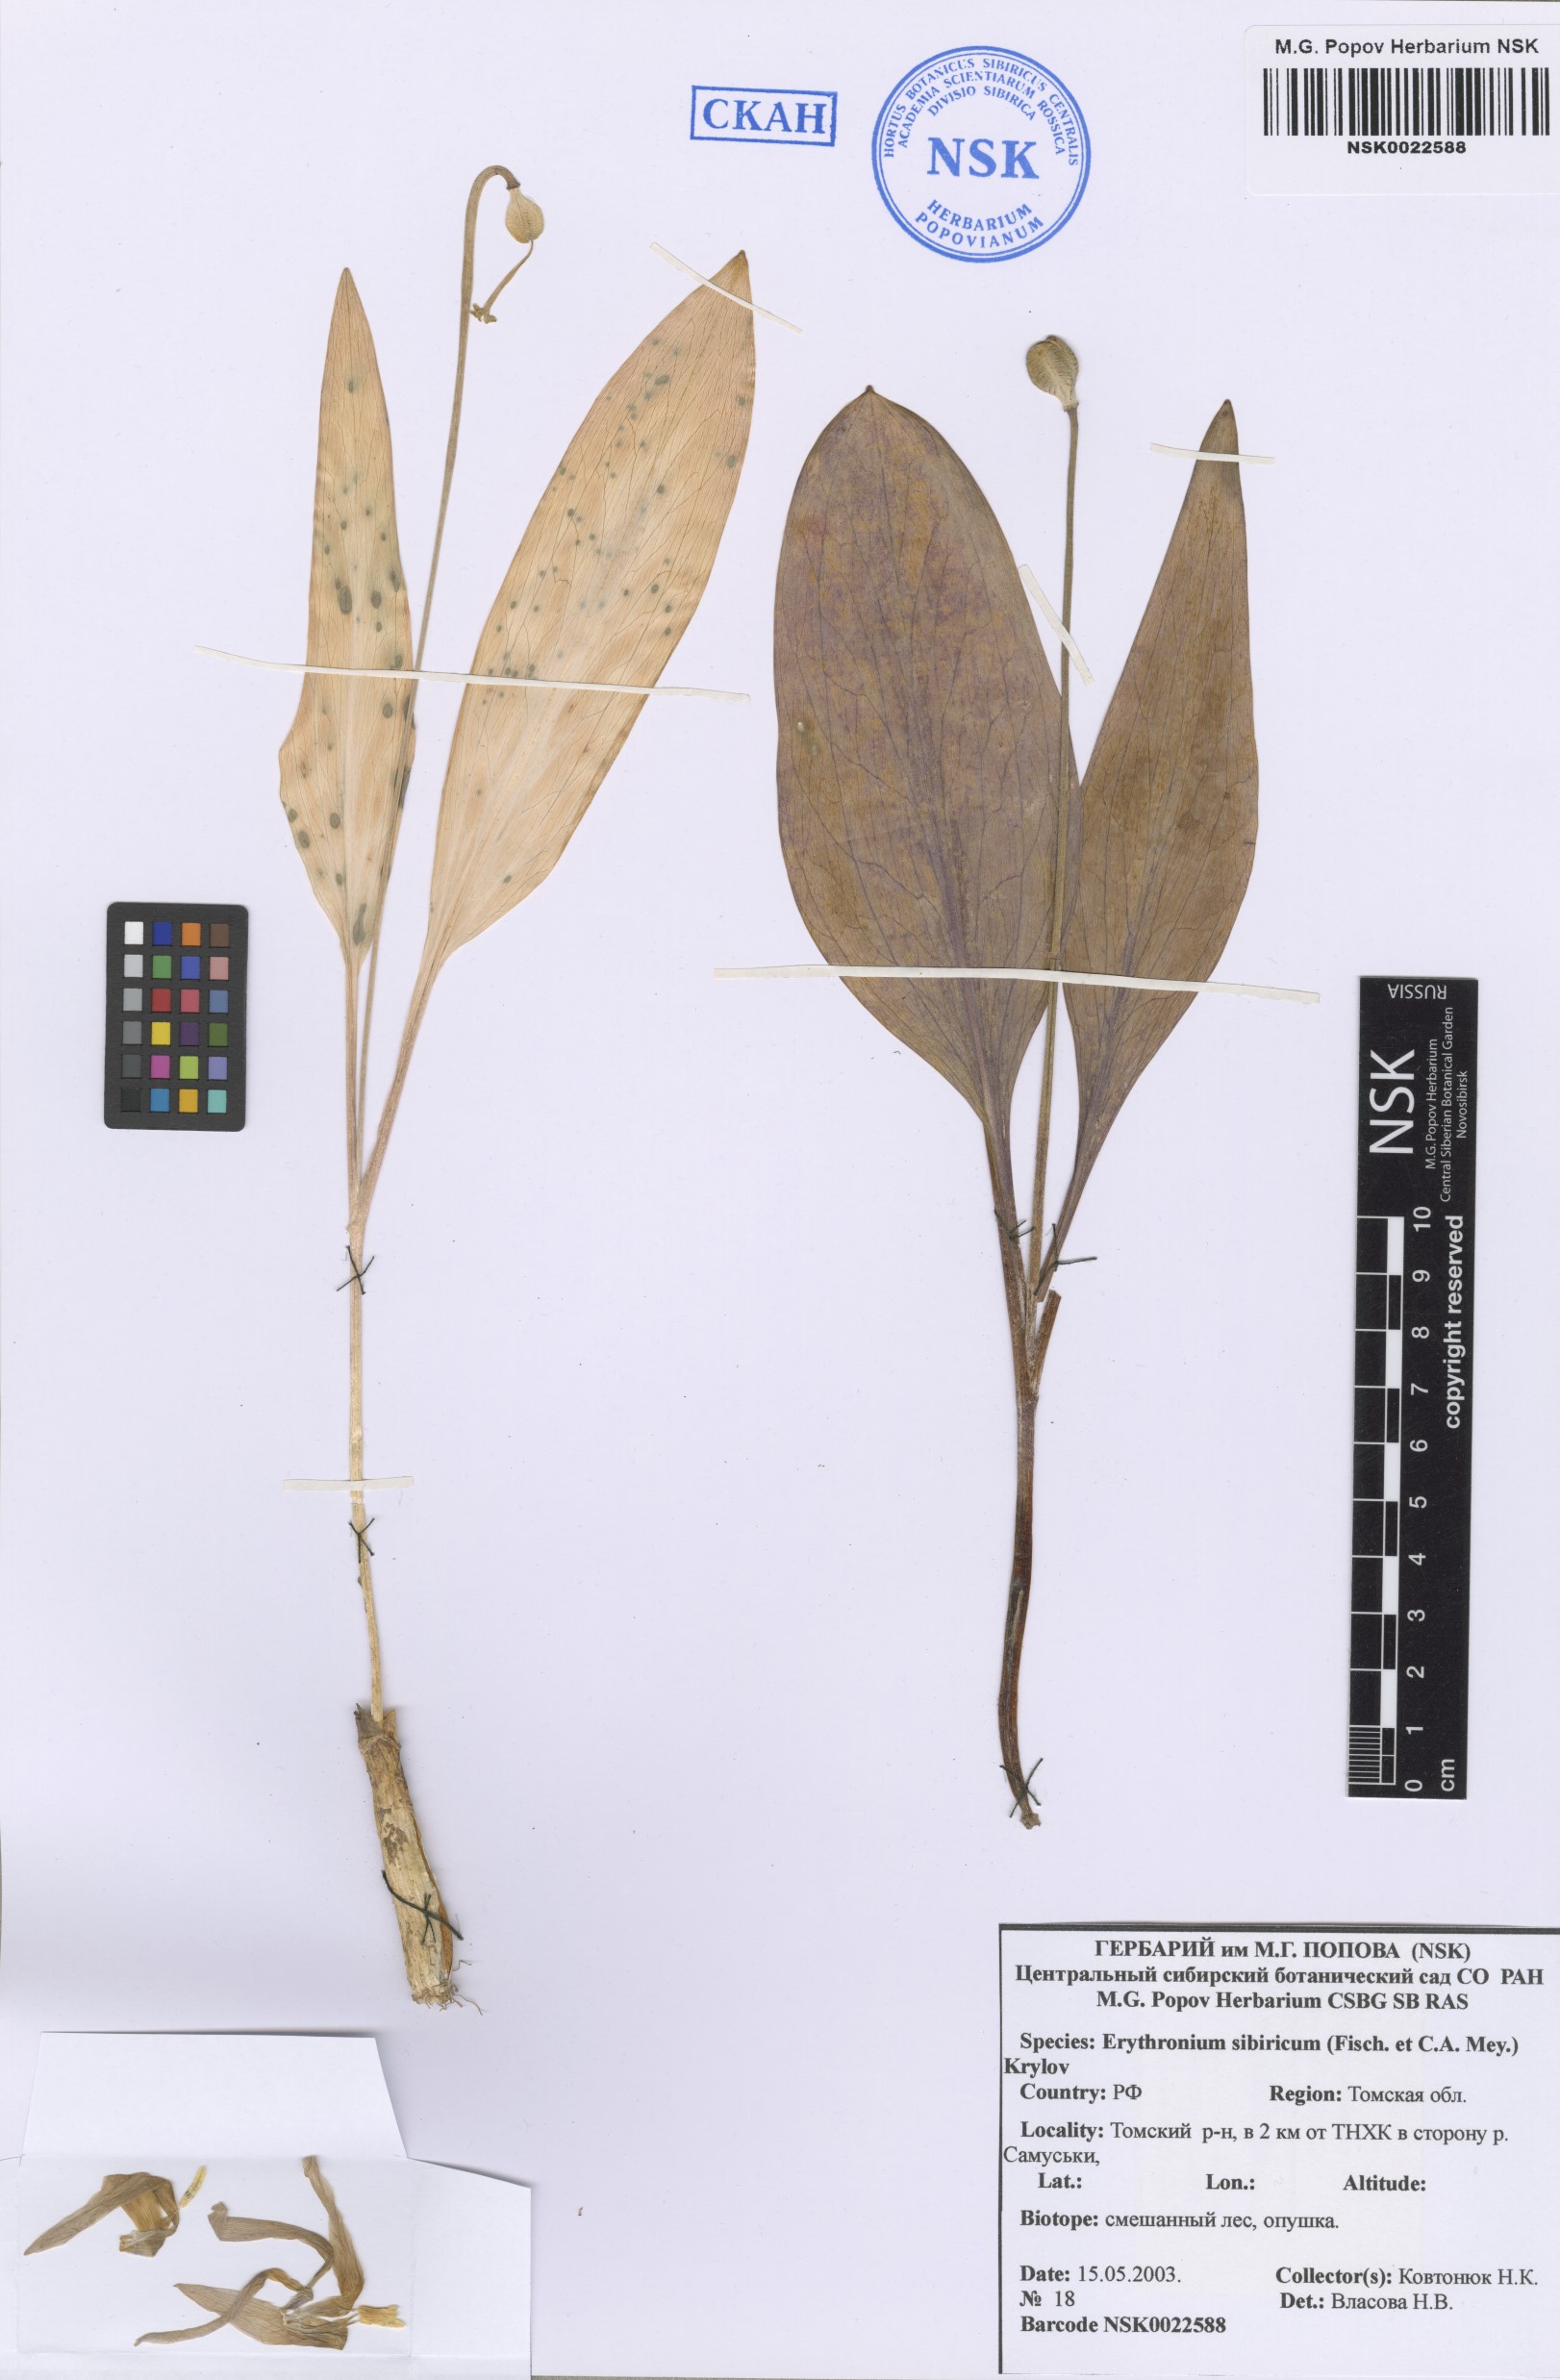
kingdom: Plantae
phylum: Tracheophyta
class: Liliopsida
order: Liliales
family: Liliaceae
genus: Erythronium
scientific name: Erythronium sibiricum
